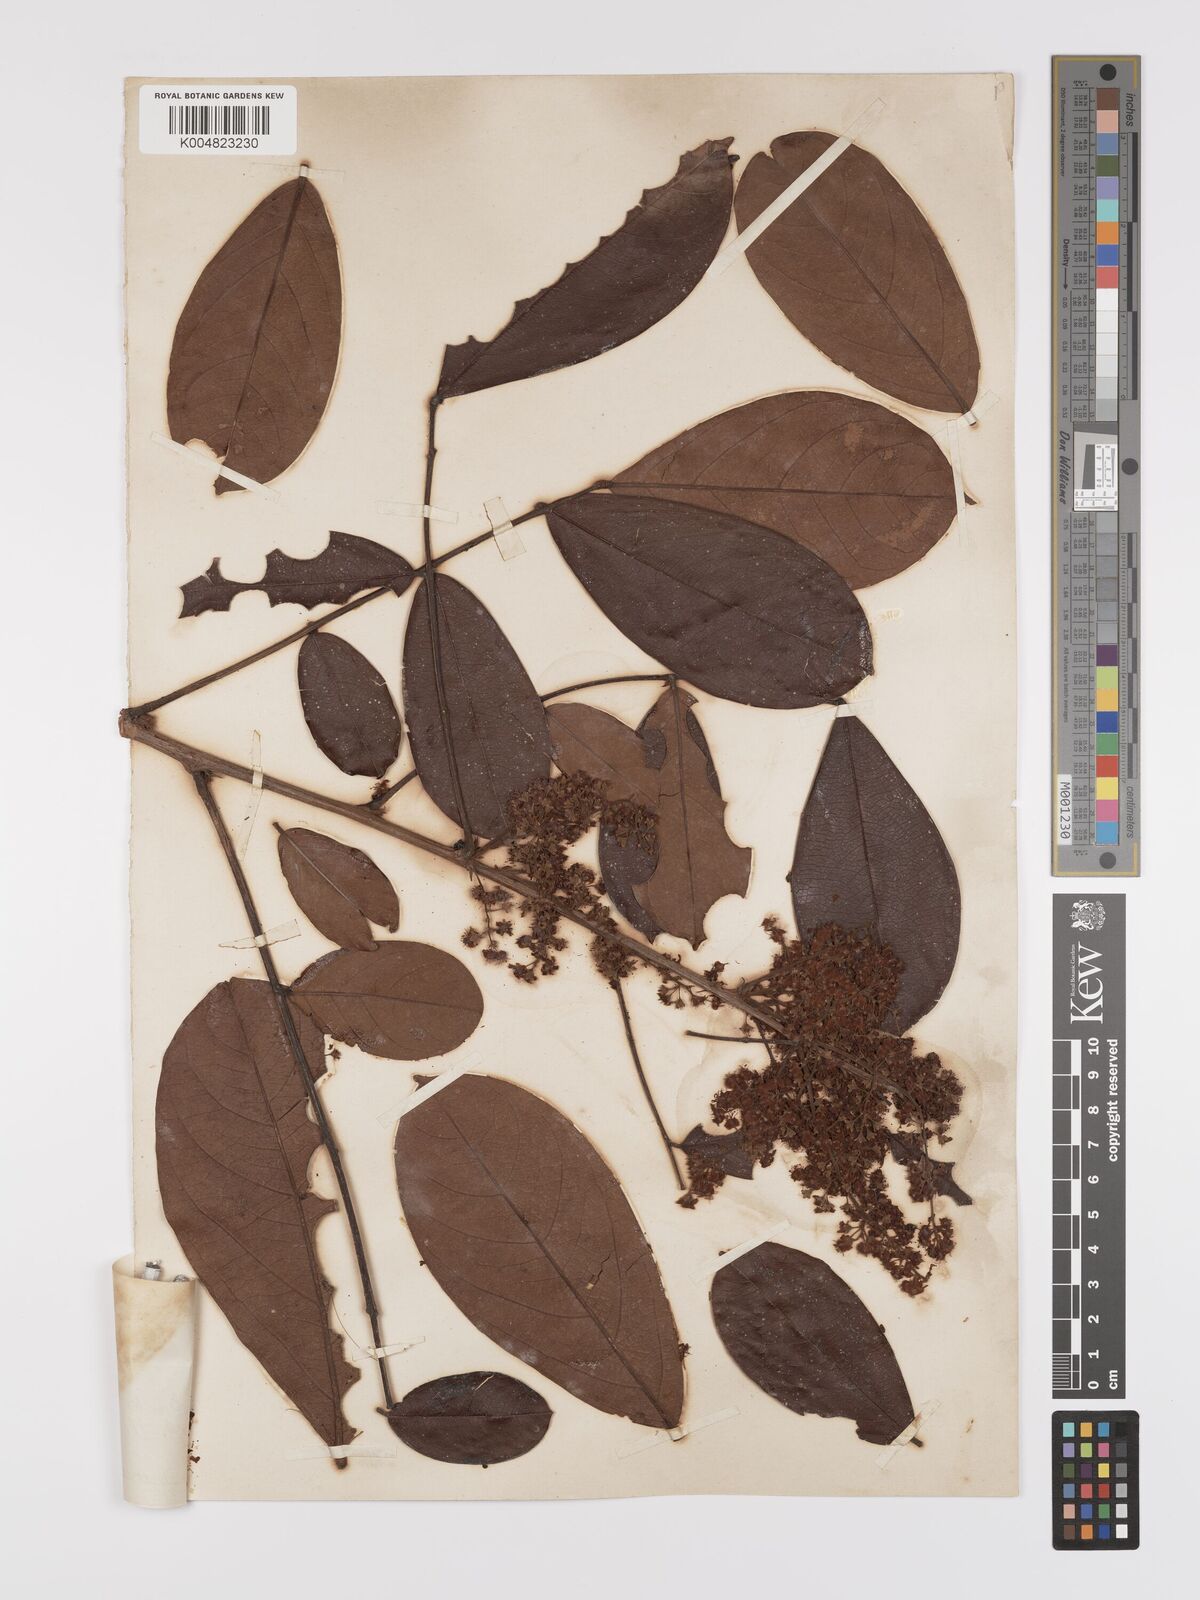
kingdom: Plantae
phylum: Tracheophyta
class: Magnoliopsida
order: Oxalidales
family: Connaraceae
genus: Rourea
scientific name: Rourea frutescens
